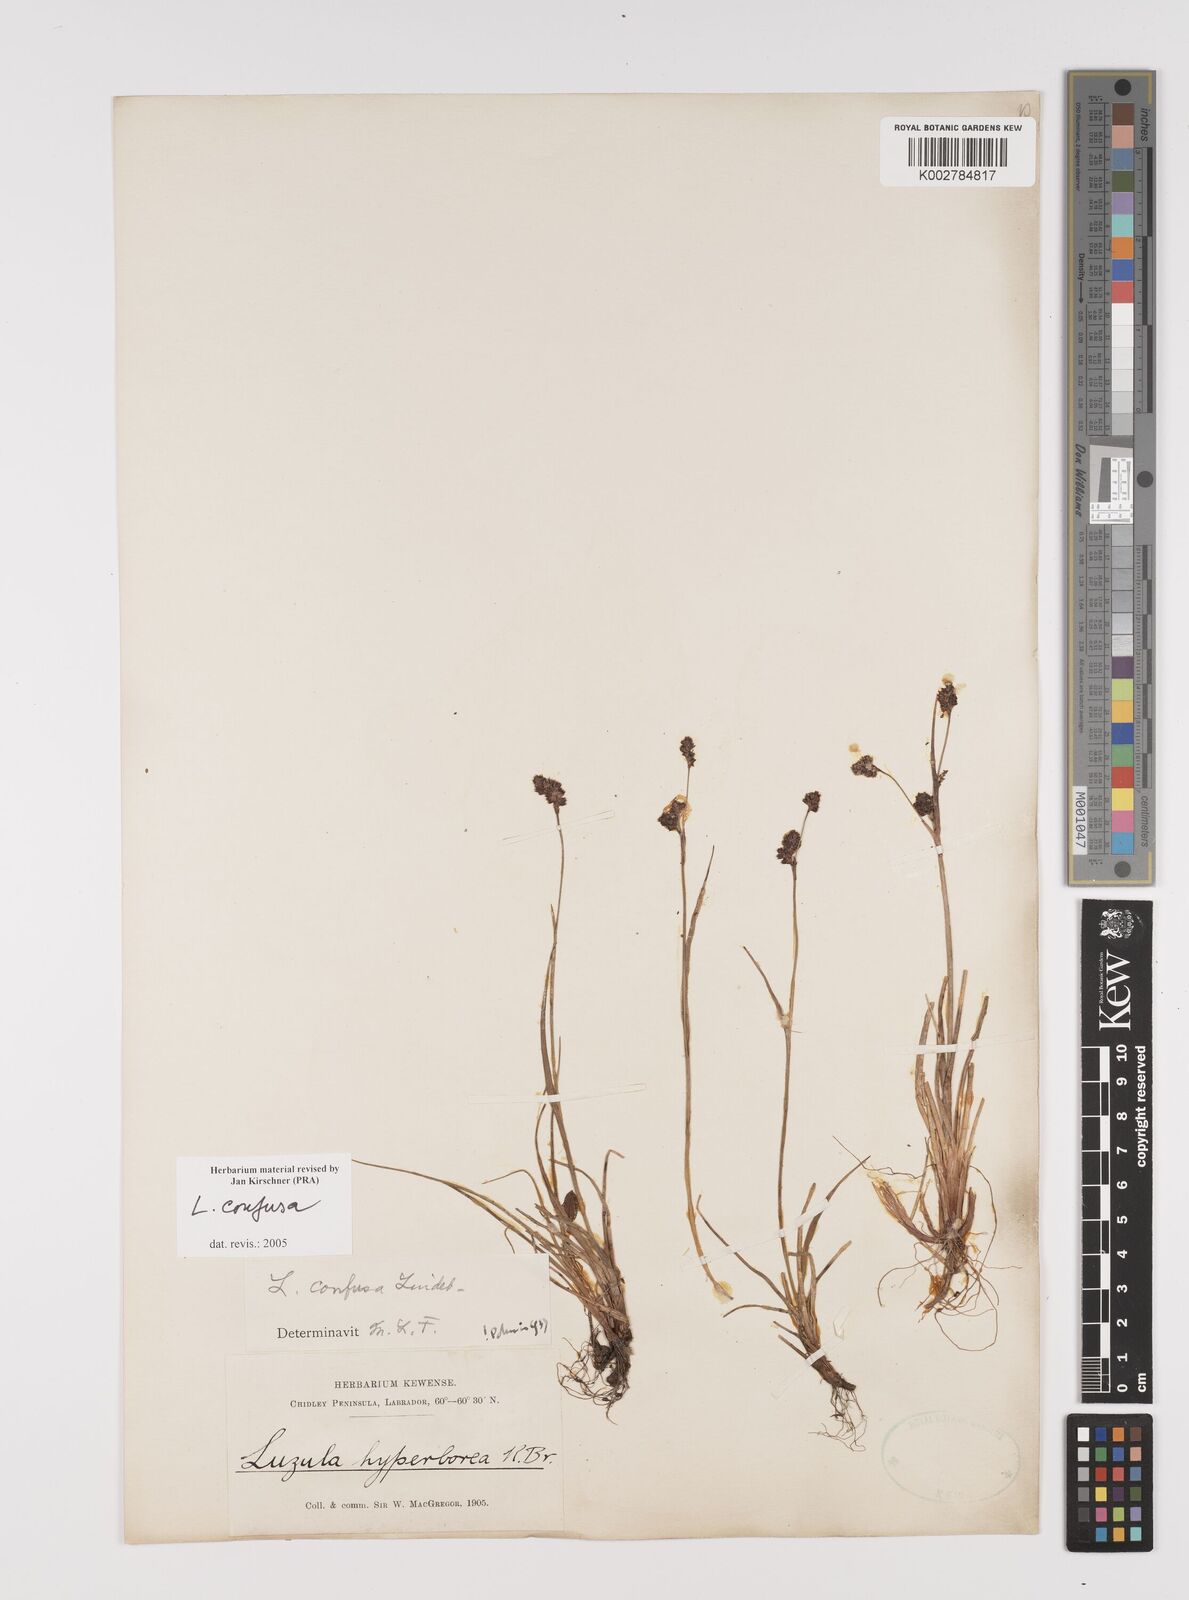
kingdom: Plantae
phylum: Tracheophyta
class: Liliopsida
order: Poales
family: Juncaceae
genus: Luzula
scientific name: Luzula confusa
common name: Northern wood rush
